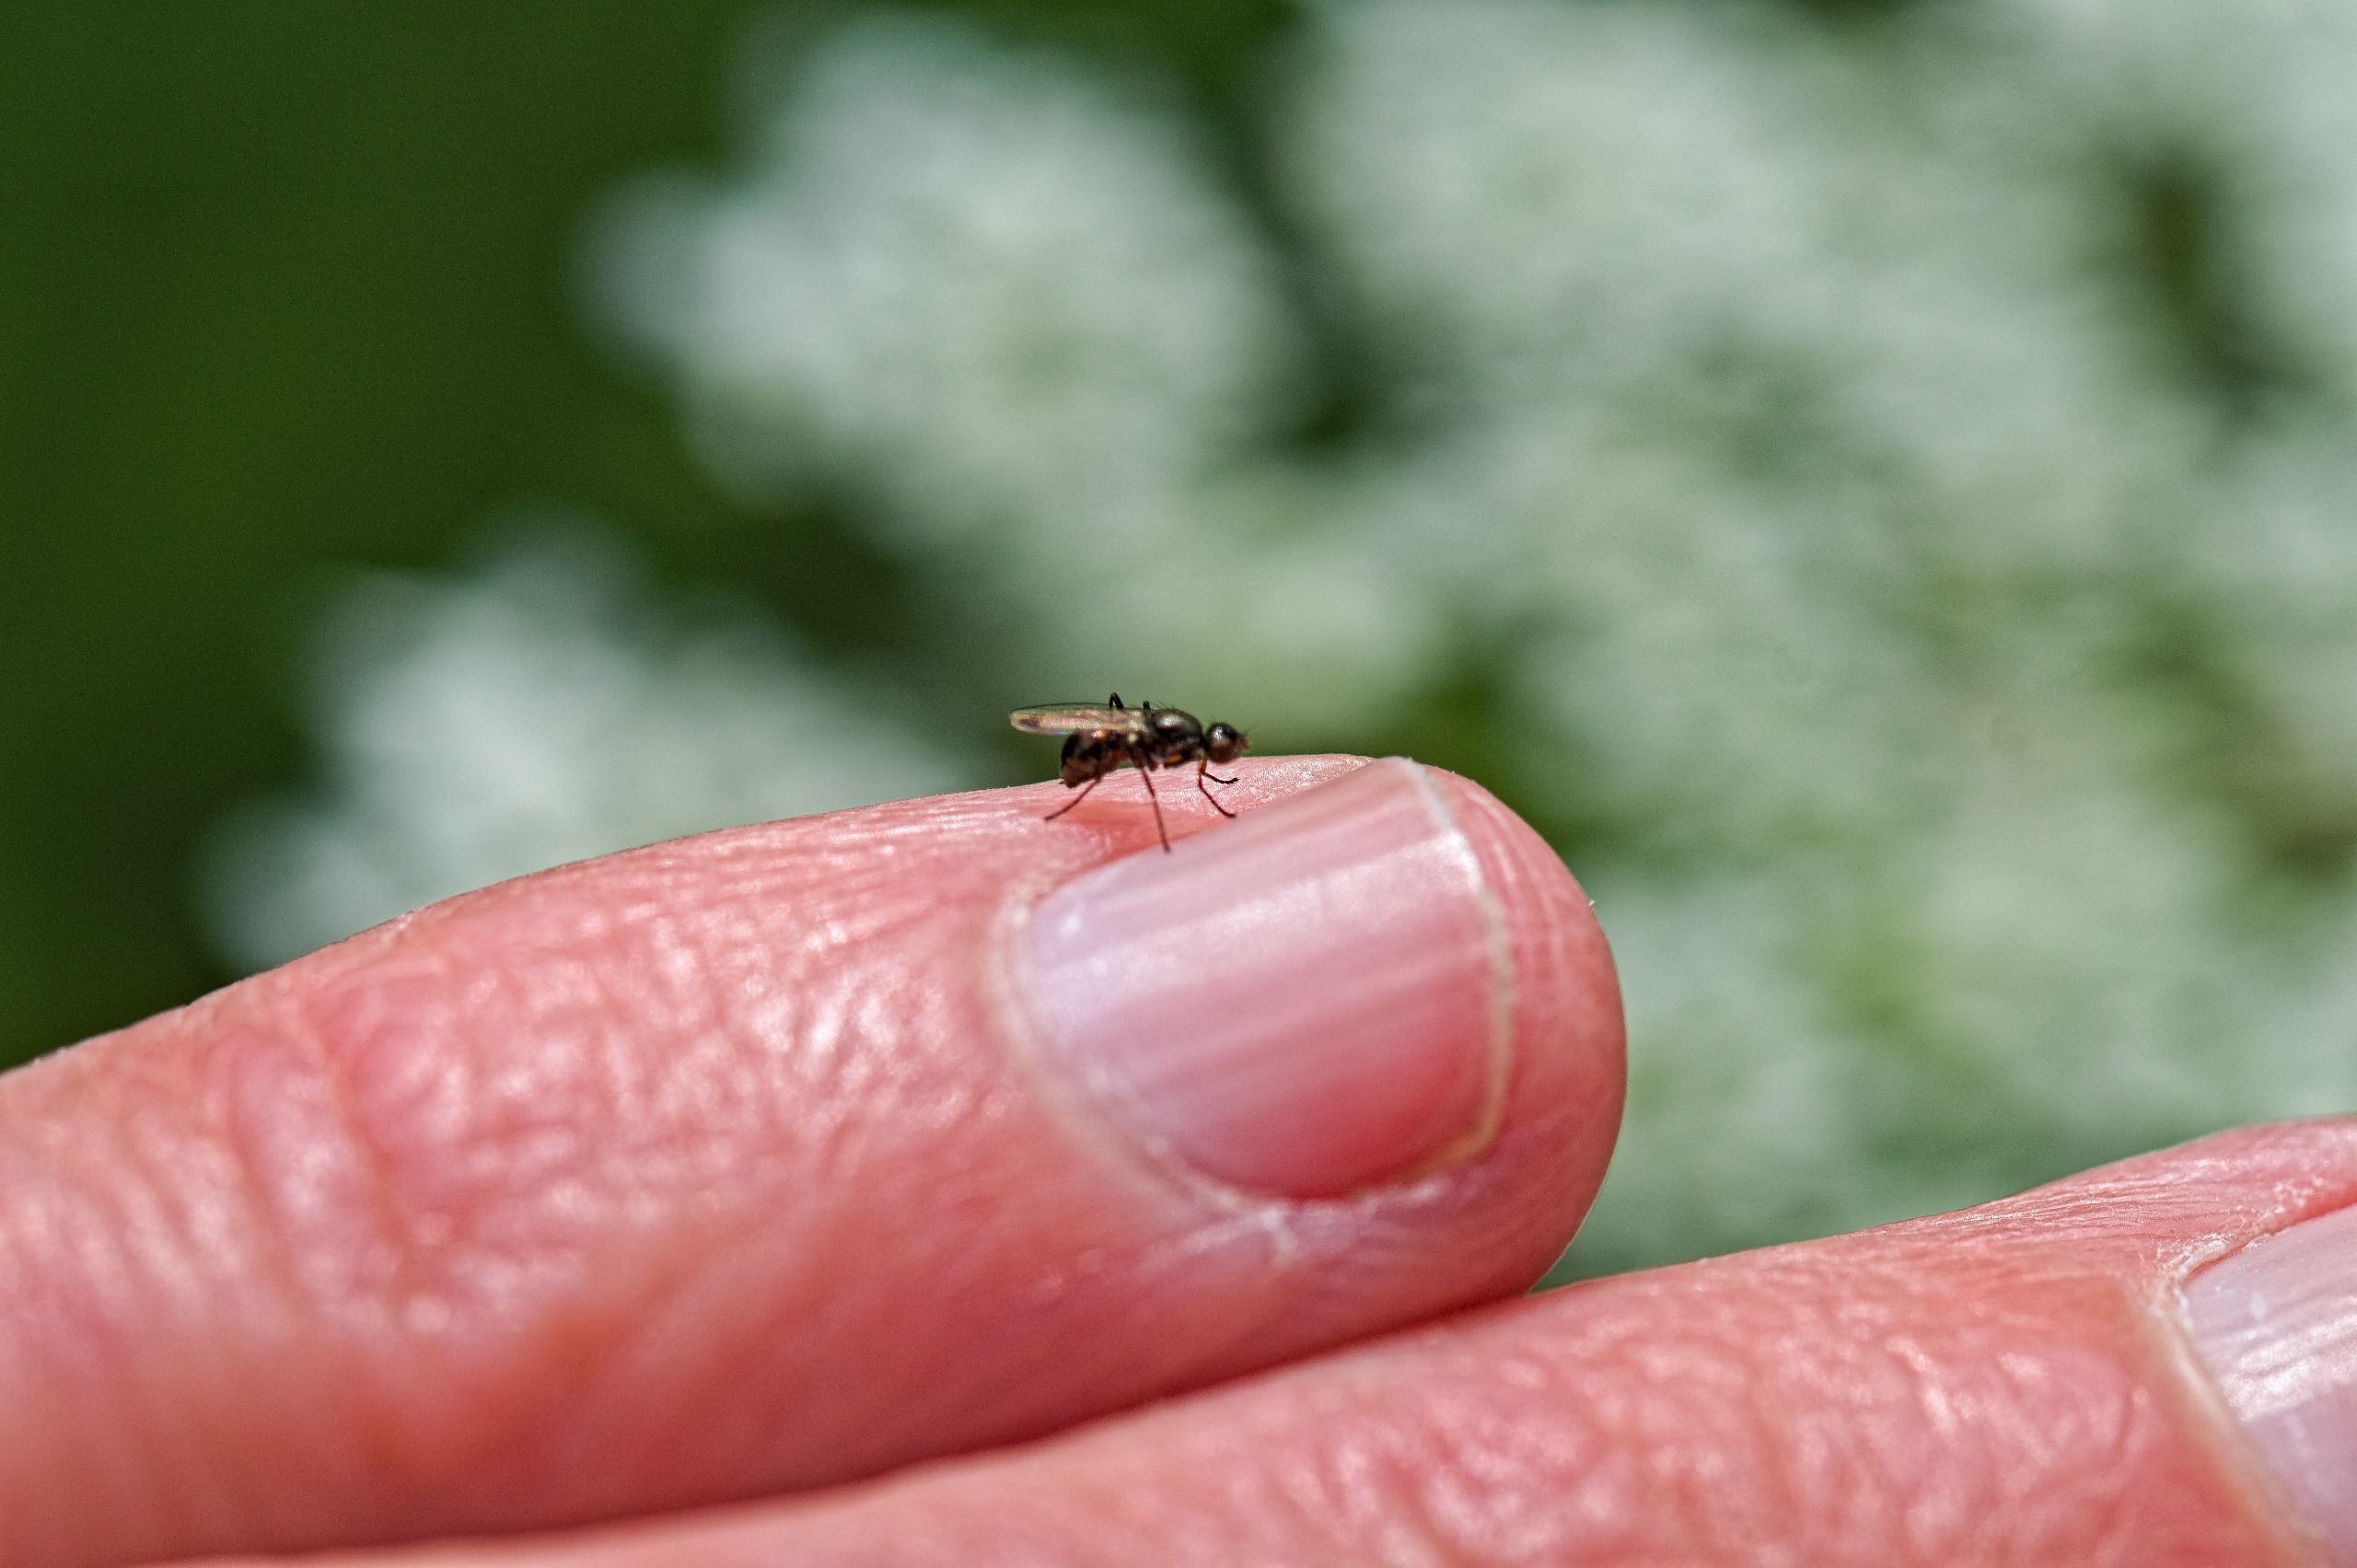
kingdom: Animalia
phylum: Arthropoda
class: Insecta
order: Diptera
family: Sepsidae
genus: Sepsis
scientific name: Sepsis
